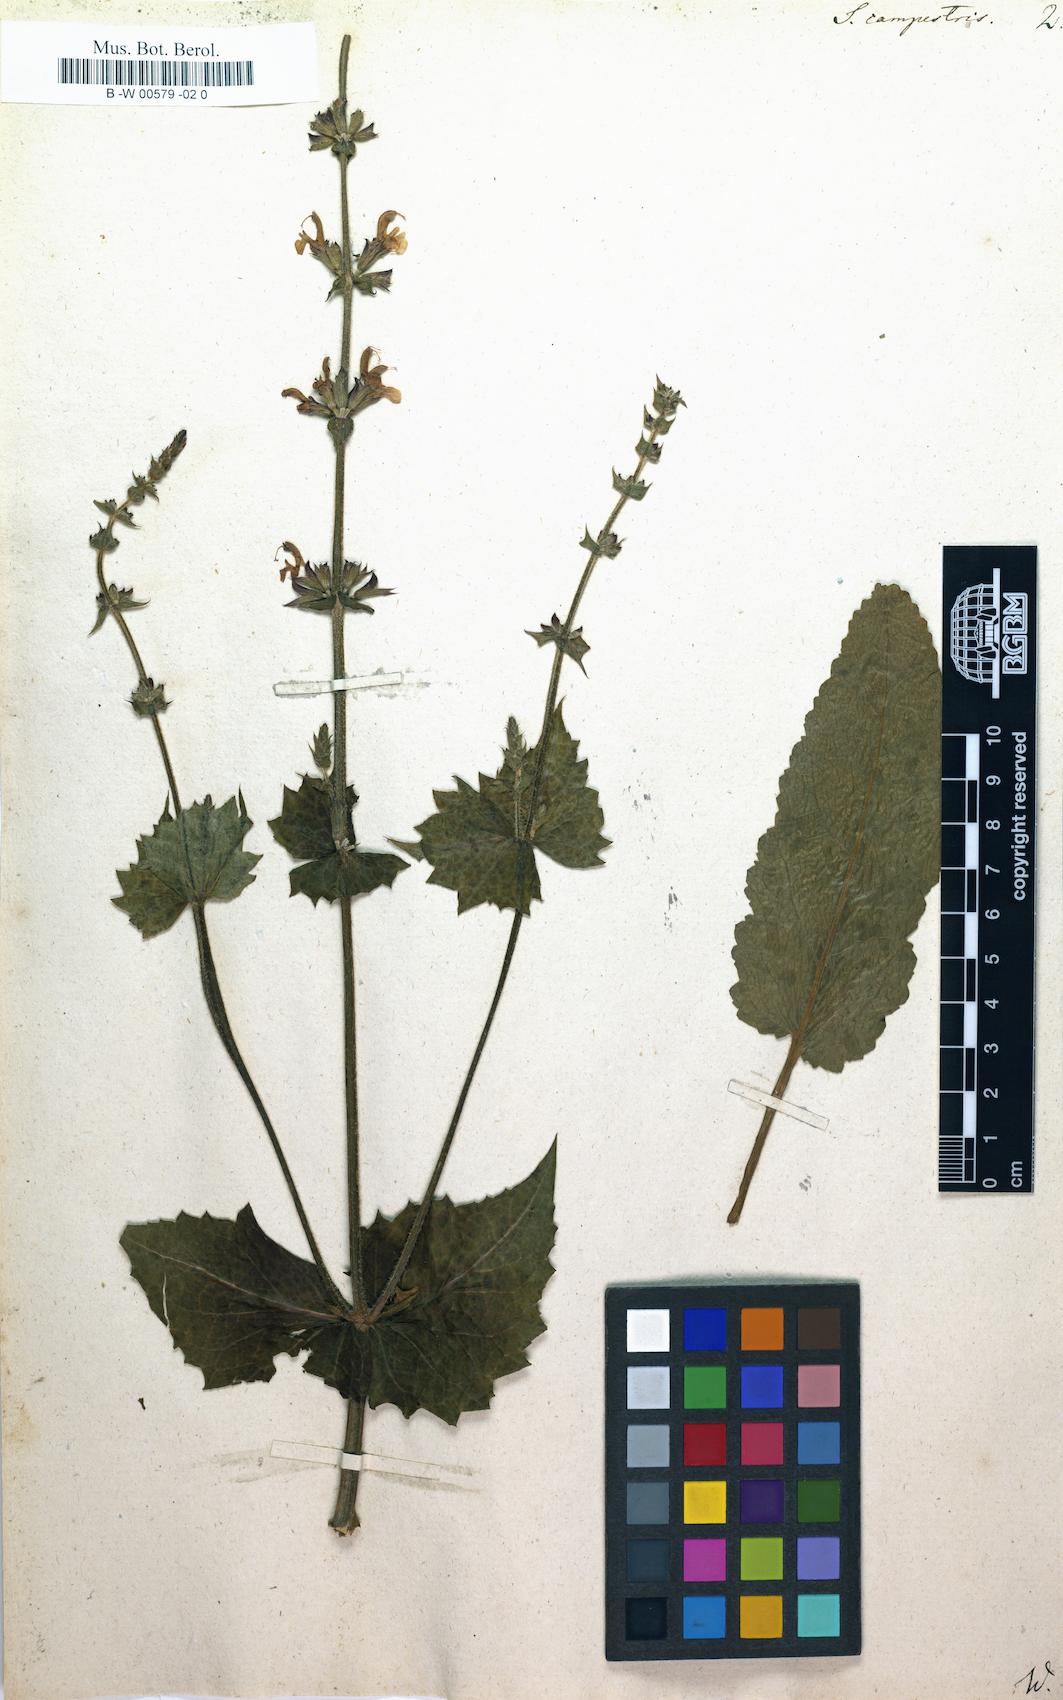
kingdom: Plantae
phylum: Tracheophyta
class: Magnoliopsida
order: Lamiales
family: Lamiaceae
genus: Salvia
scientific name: Salvia virgata
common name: Wand sage
